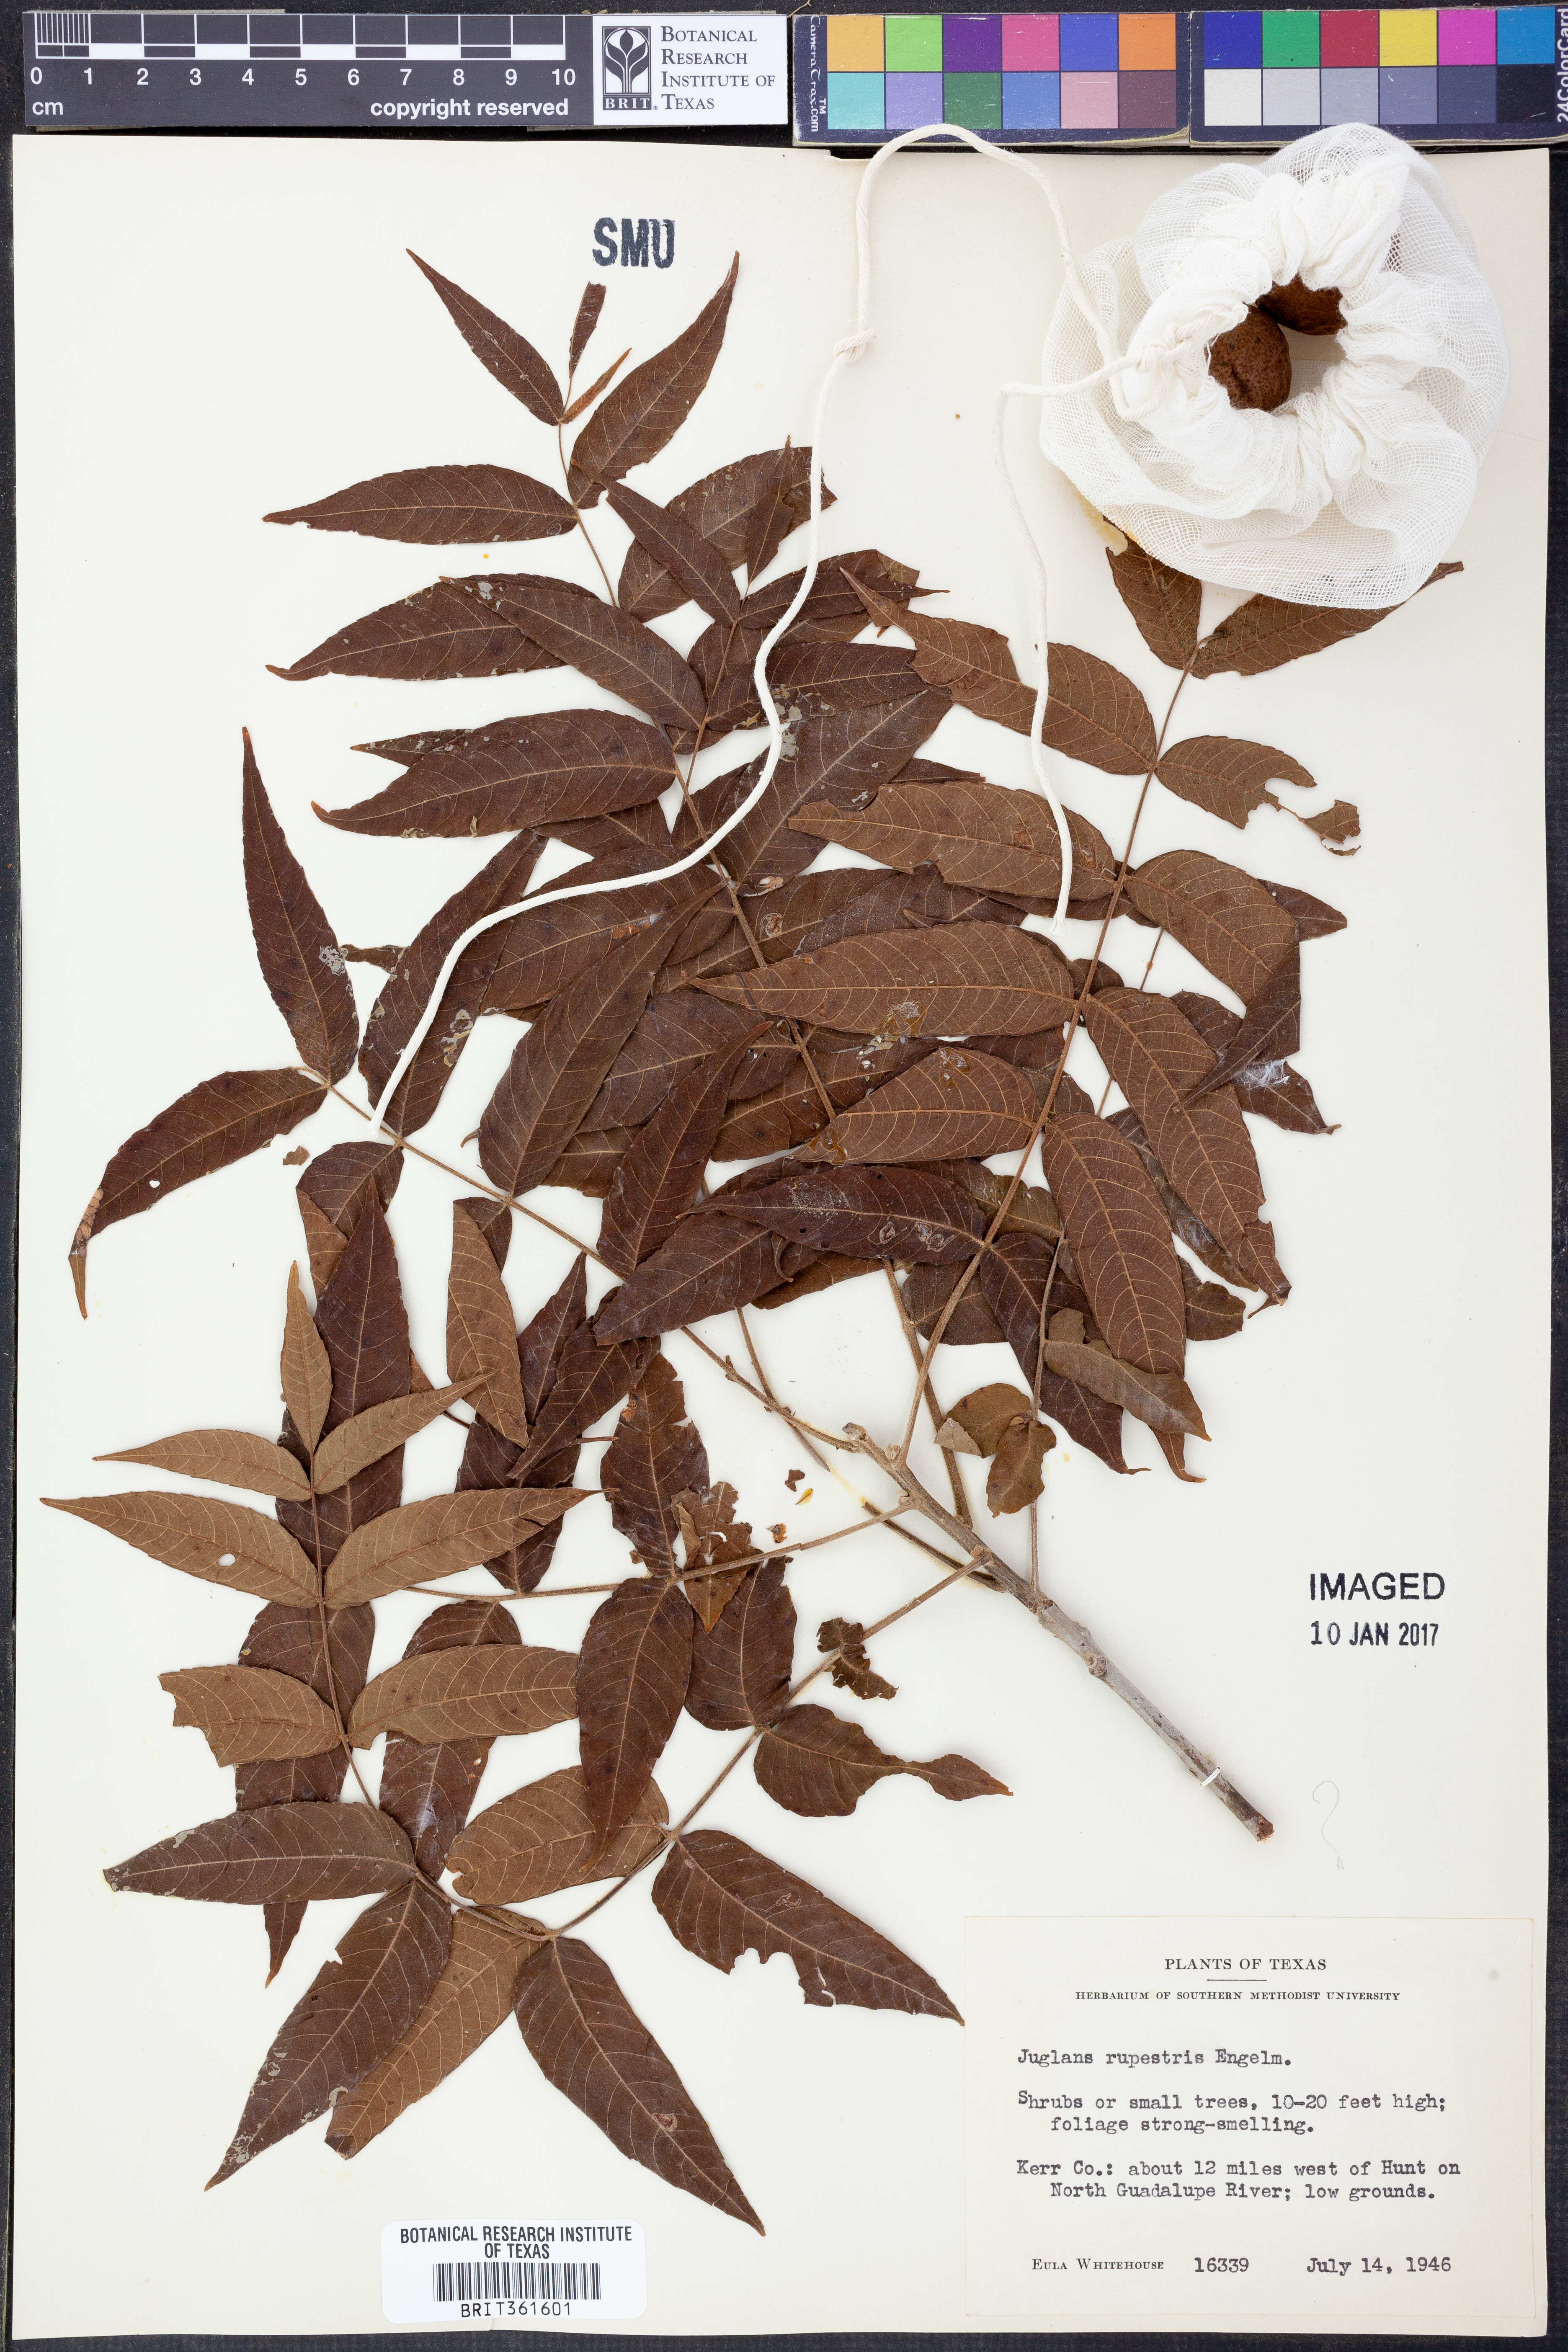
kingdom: Plantae
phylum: Tracheophyta
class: Magnoliopsida
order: Fagales
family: Juglandaceae
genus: Juglans
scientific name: Juglans microcarpa
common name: Texas walnut
